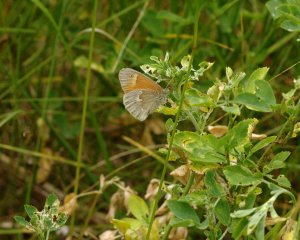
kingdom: Animalia
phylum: Arthropoda
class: Insecta
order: Lepidoptera
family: Nymphalidae
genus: Coenonympha
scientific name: Coenonympha tullia
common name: Large Heath
